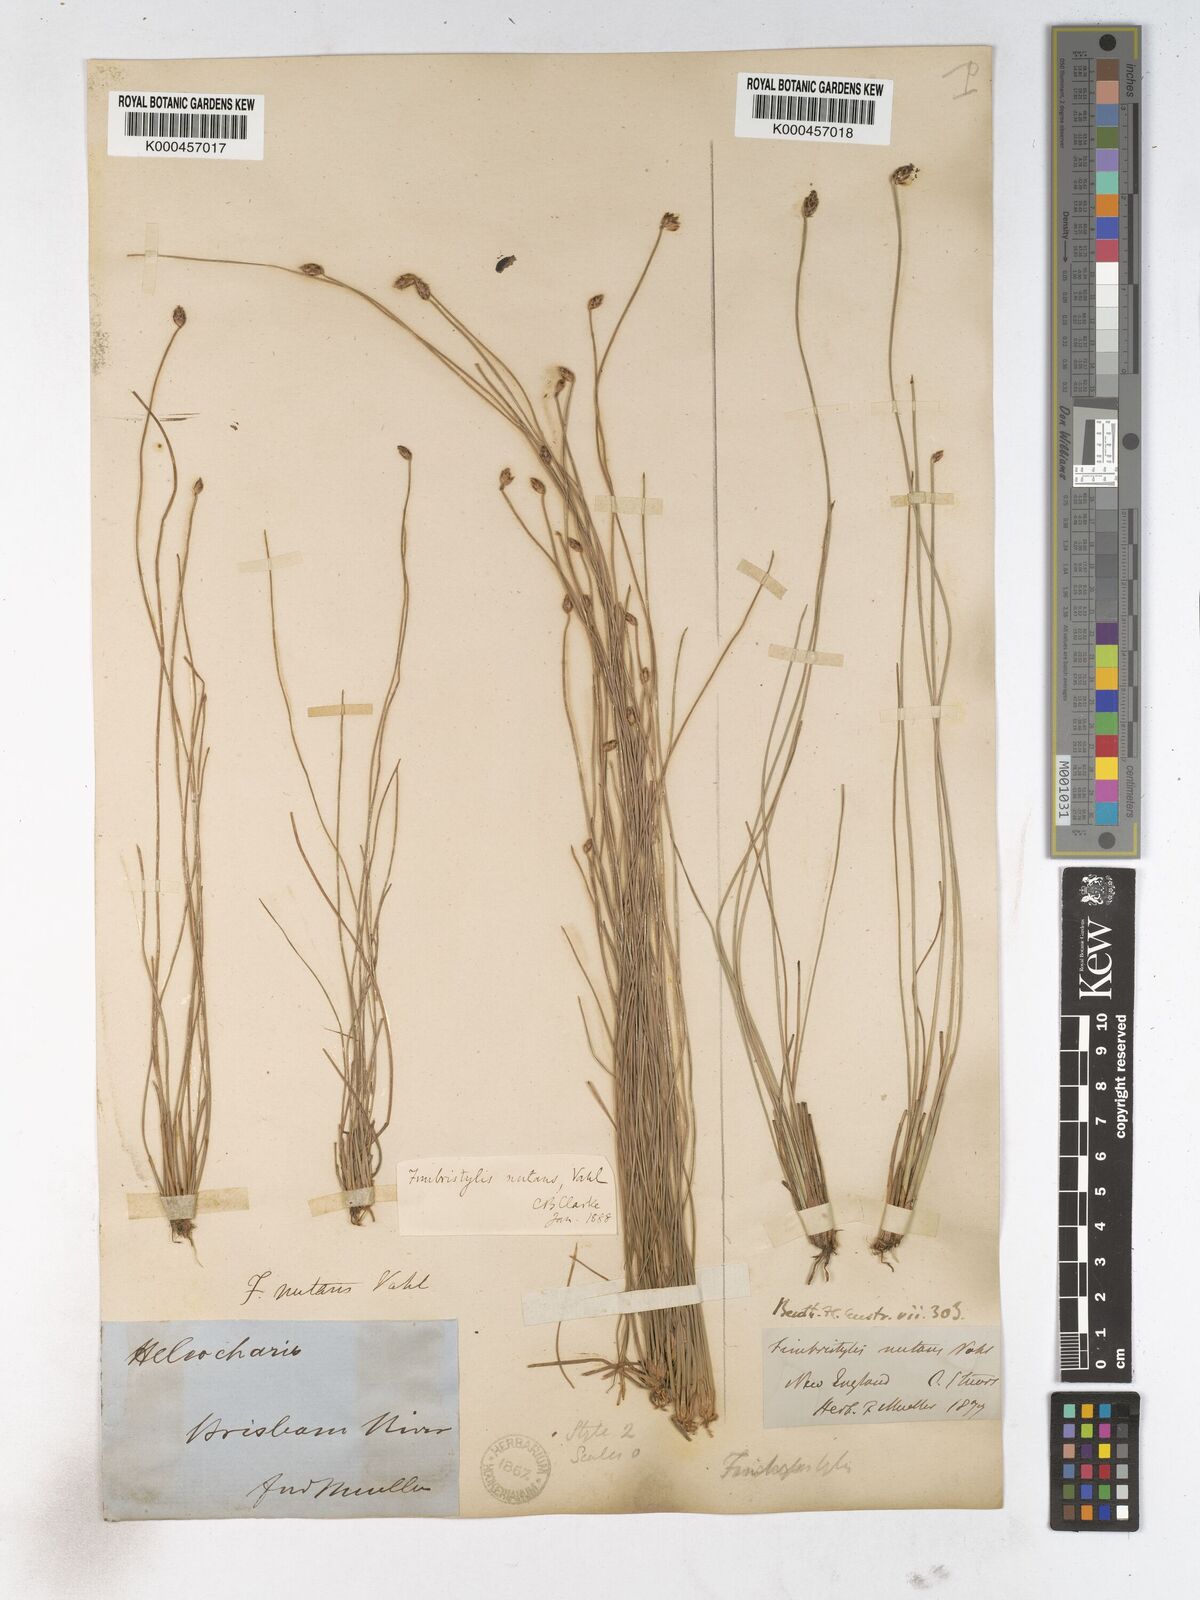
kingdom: Plantae
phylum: Tracheophyta
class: Liliopsida
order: Poales
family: Cyperaceae
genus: Fimbristylis
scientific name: Fimbristylis nutans
